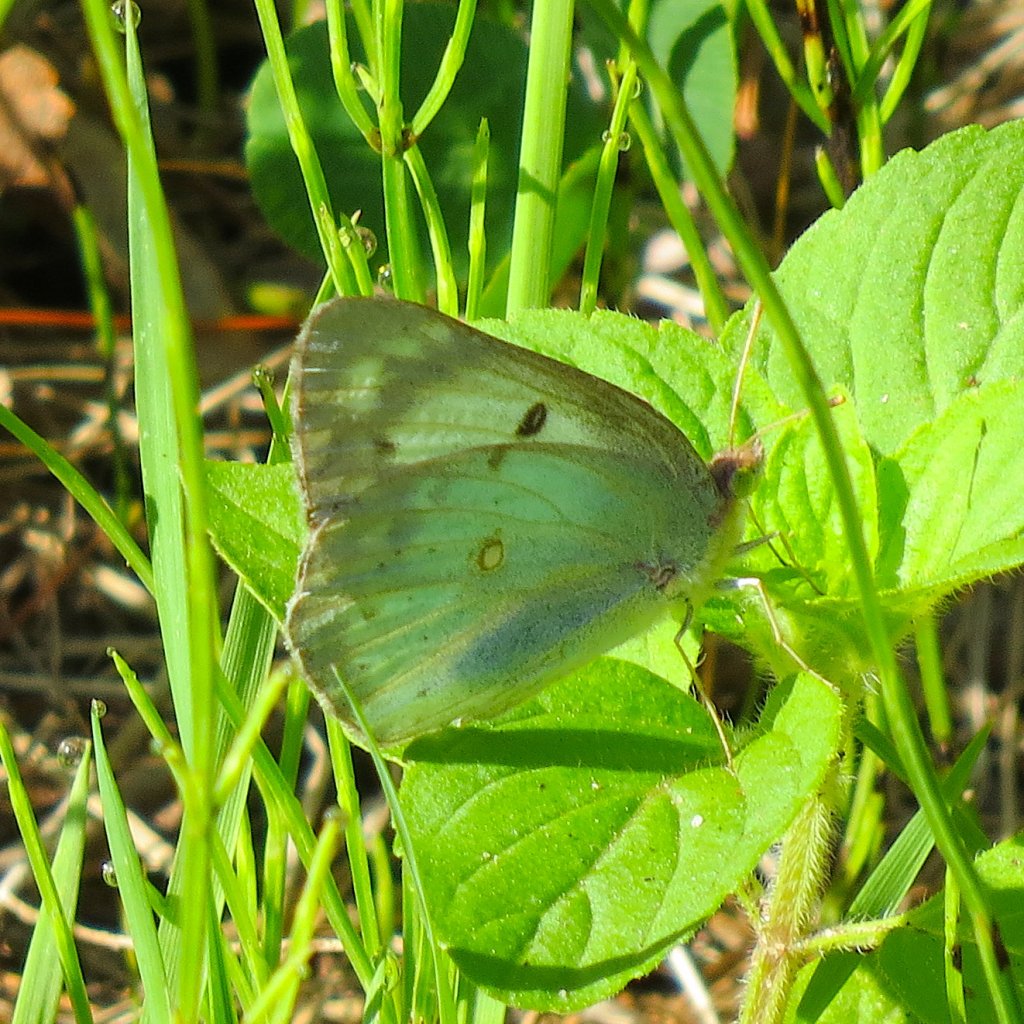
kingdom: Animalia
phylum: Arthropoda
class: Insecta
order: Lepidoptera
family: Pieridae
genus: Colias
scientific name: Colias philodice
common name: Clouded Sulphur
